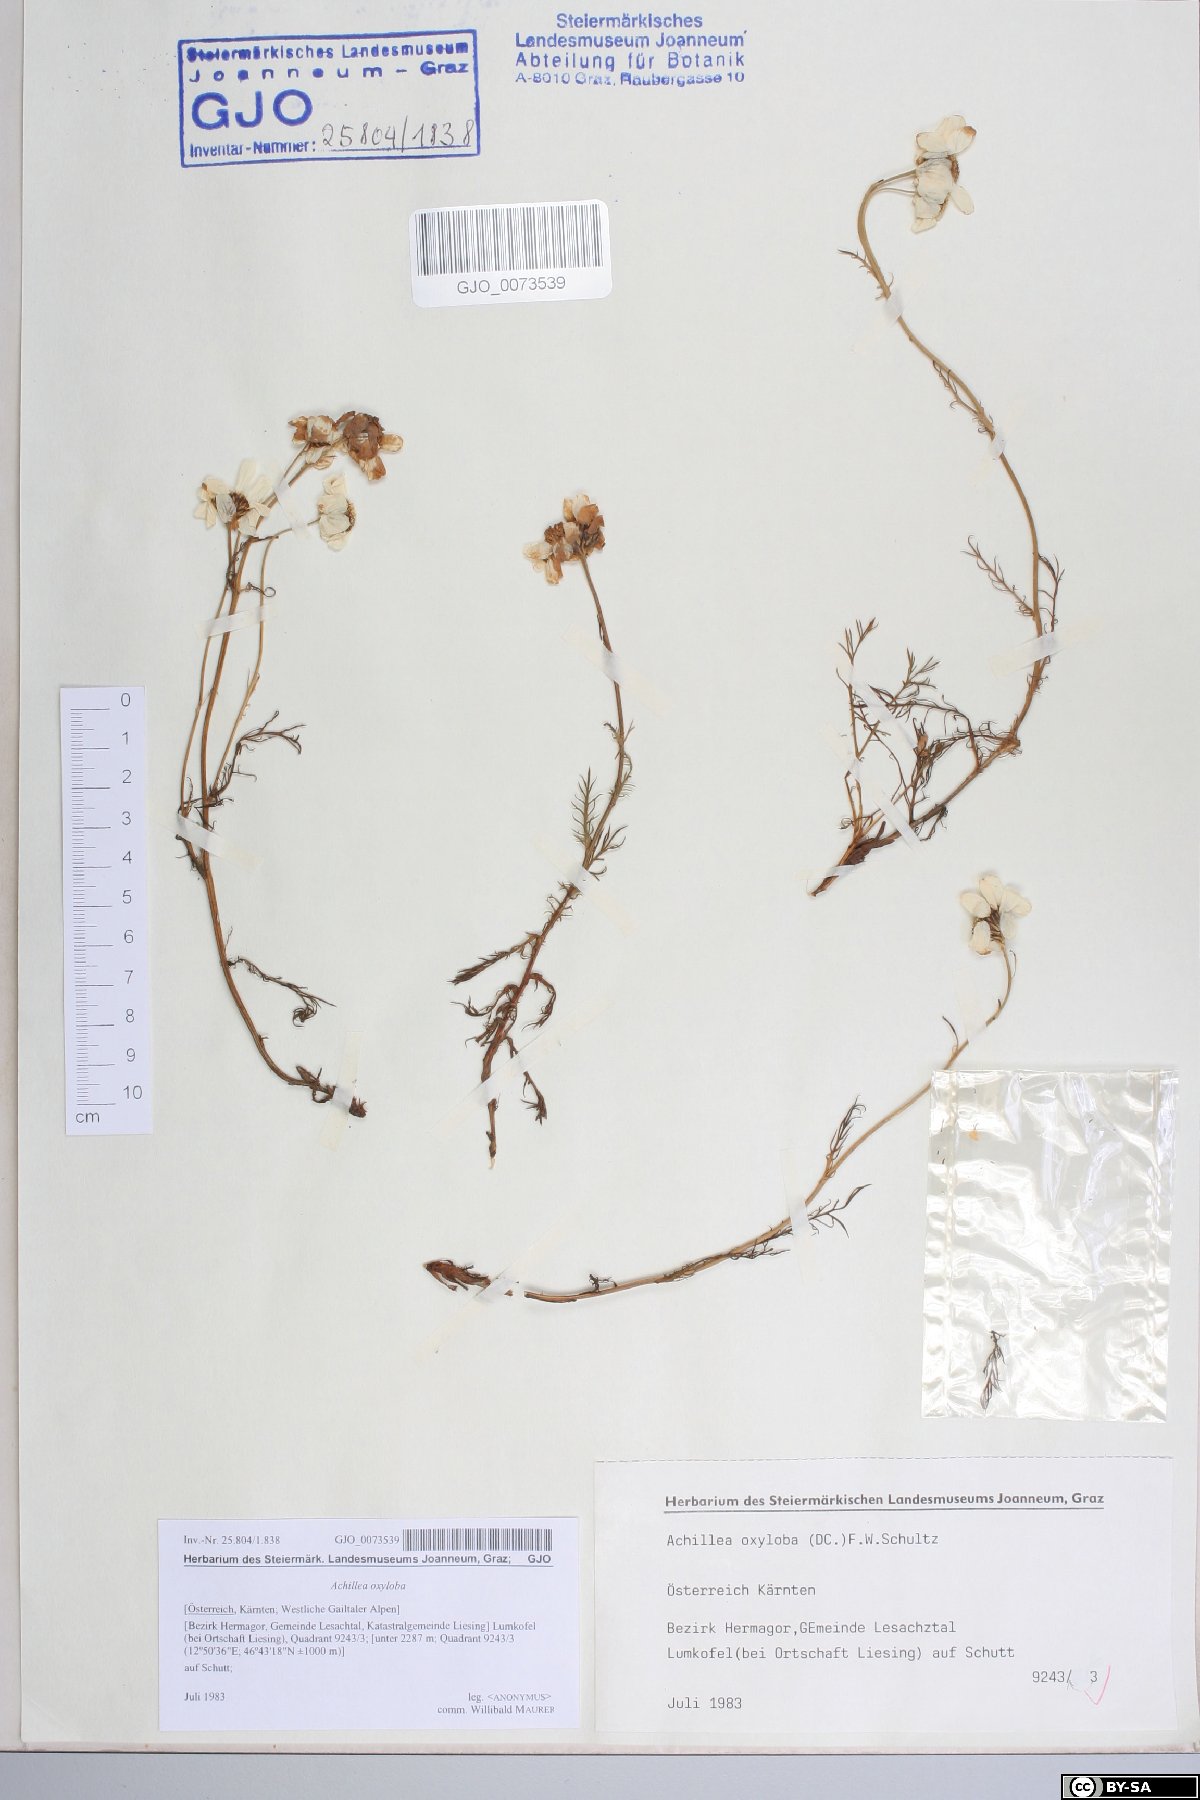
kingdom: Plantae
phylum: Tracheophyta
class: Magnoliopsida
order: Asterales
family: Asteraceae
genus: Achillea
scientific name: Achillea oxyloba
